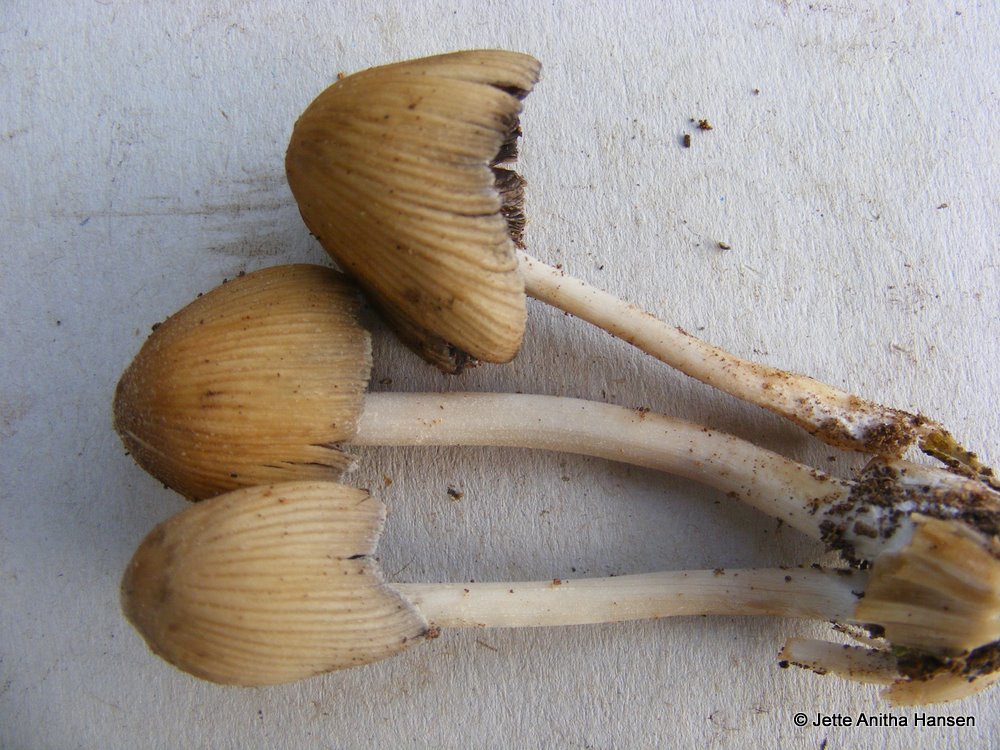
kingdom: Fungi
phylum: Basidiomycota
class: Agaricomycetes
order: Agaricales
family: Psathyrellaceae
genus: Coprinellus
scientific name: Coprinellus micaceus
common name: glimmer-blækhat
